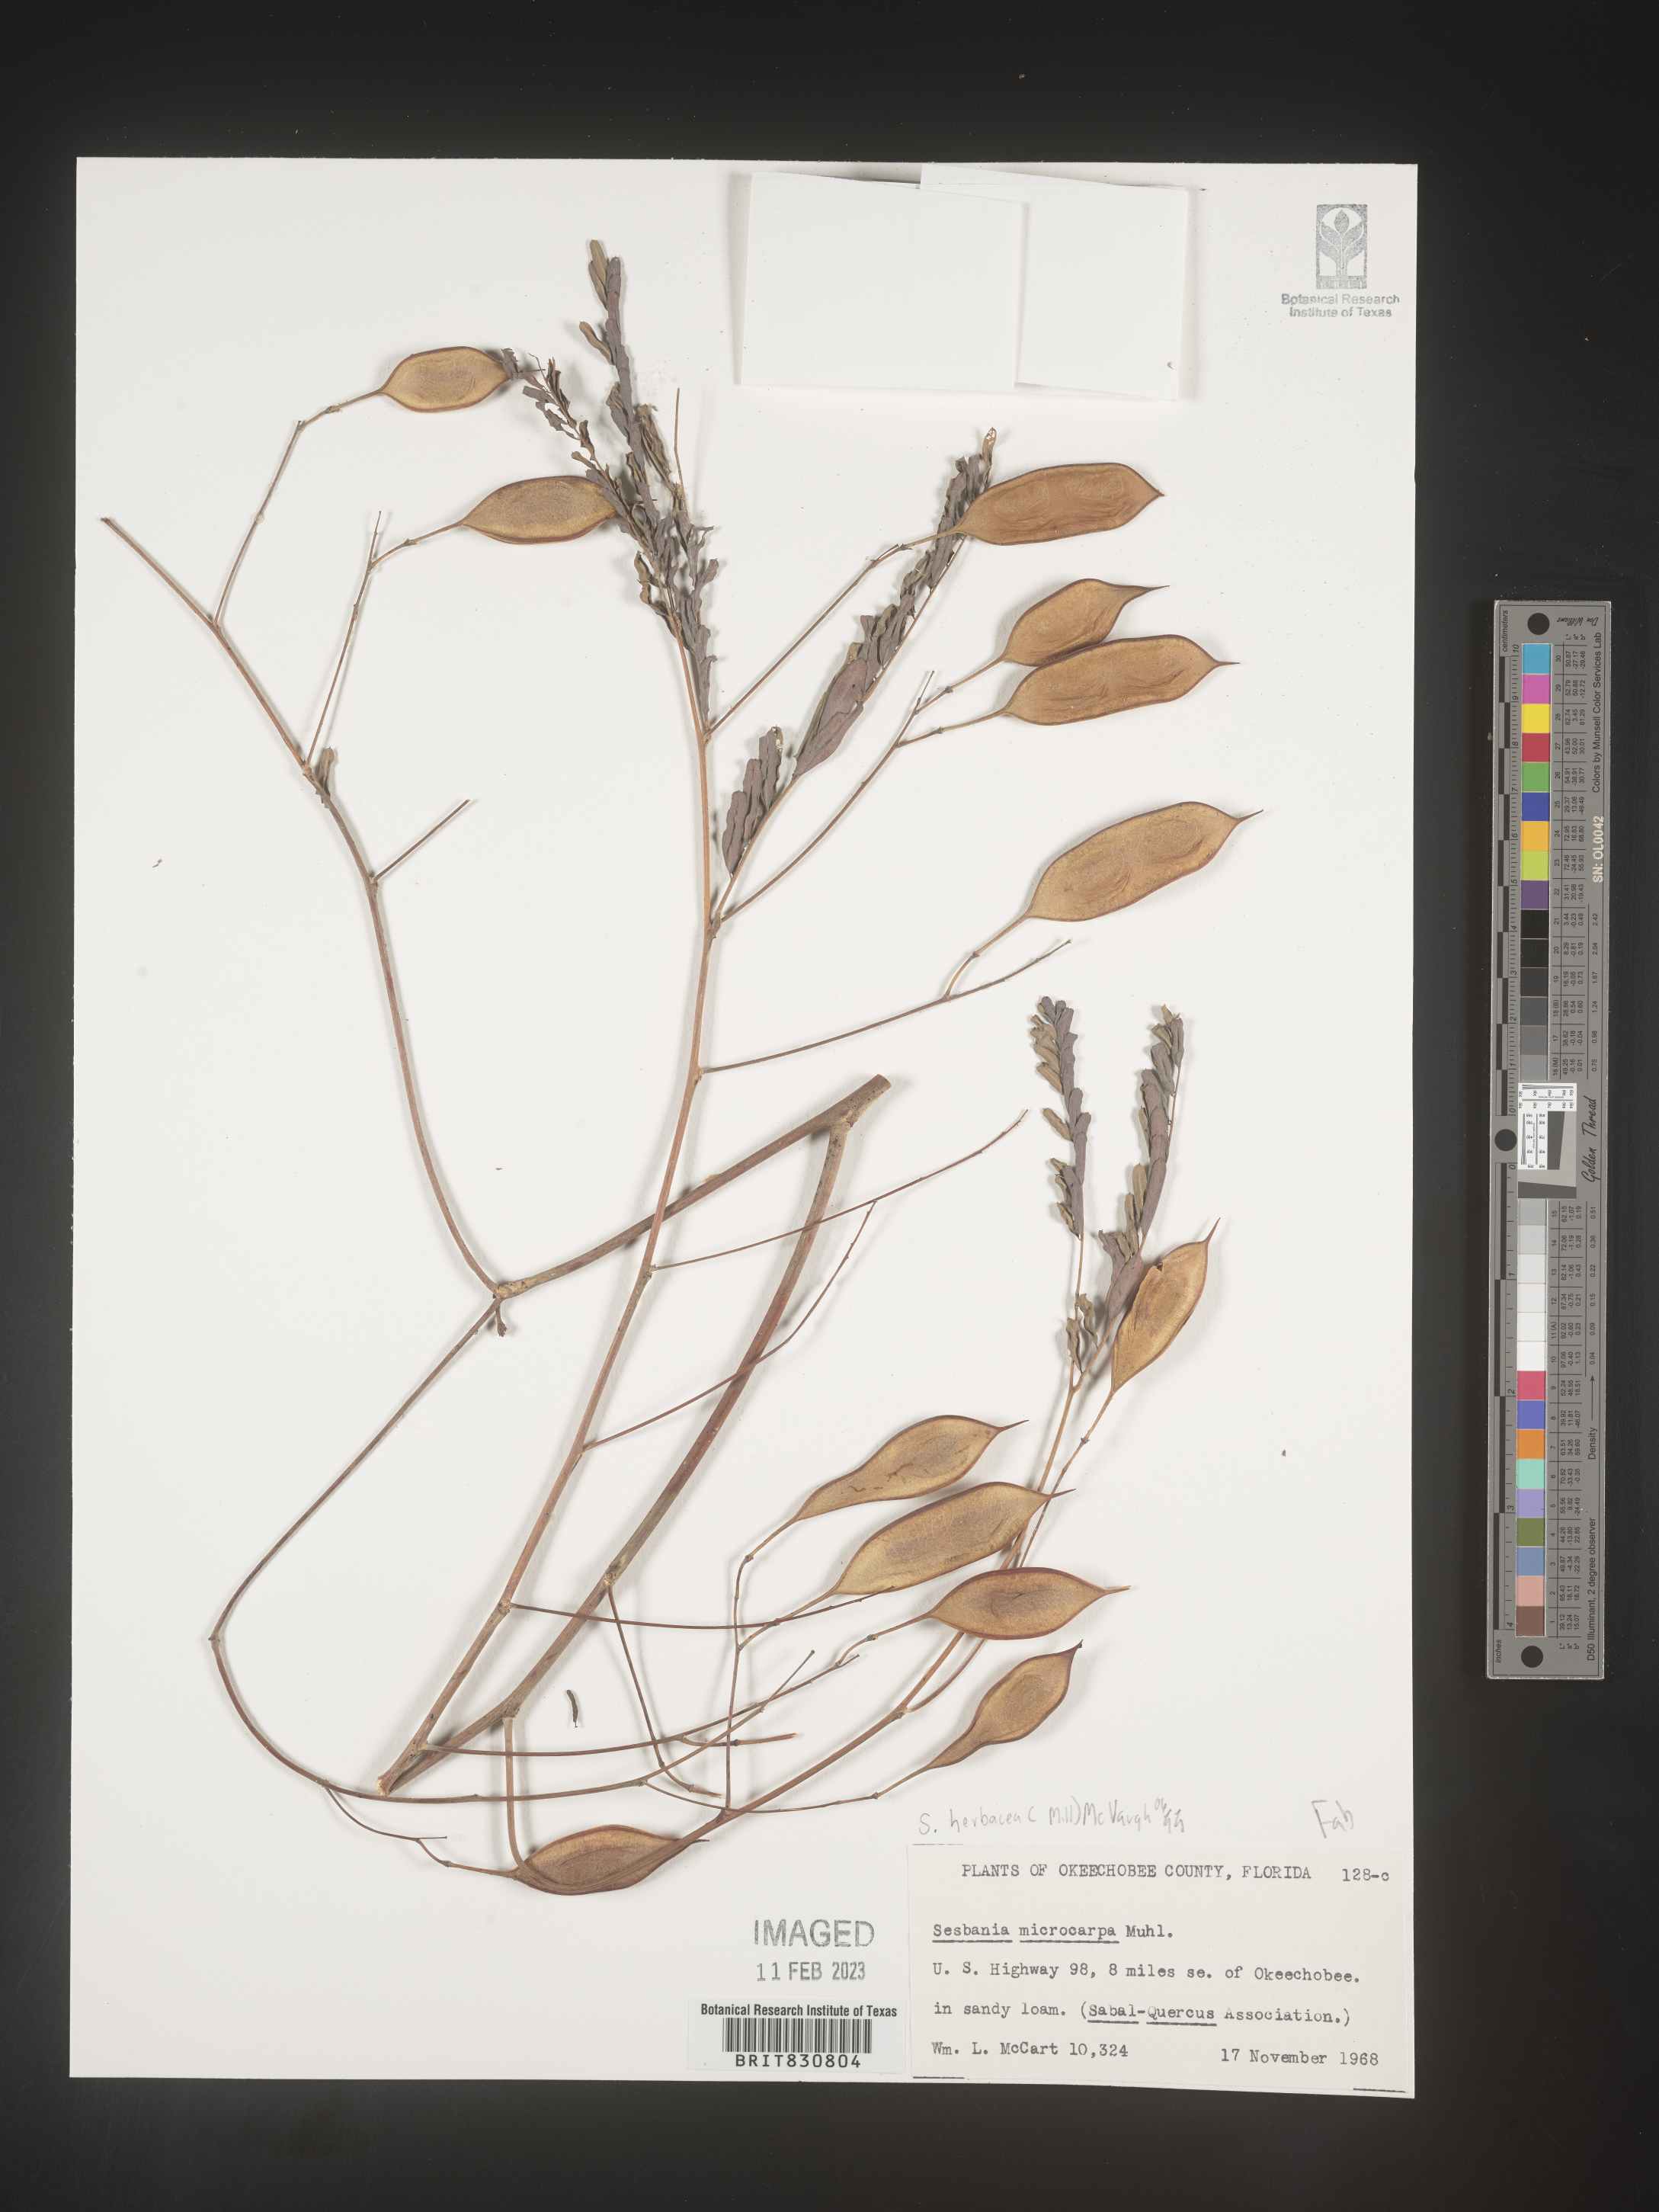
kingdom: Plantae
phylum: Tracheophyta
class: Magnoliopsida
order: Fabales
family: Fabaceae
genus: Sesbania
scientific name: Sesbania herbacea
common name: Bigpod sesbania
